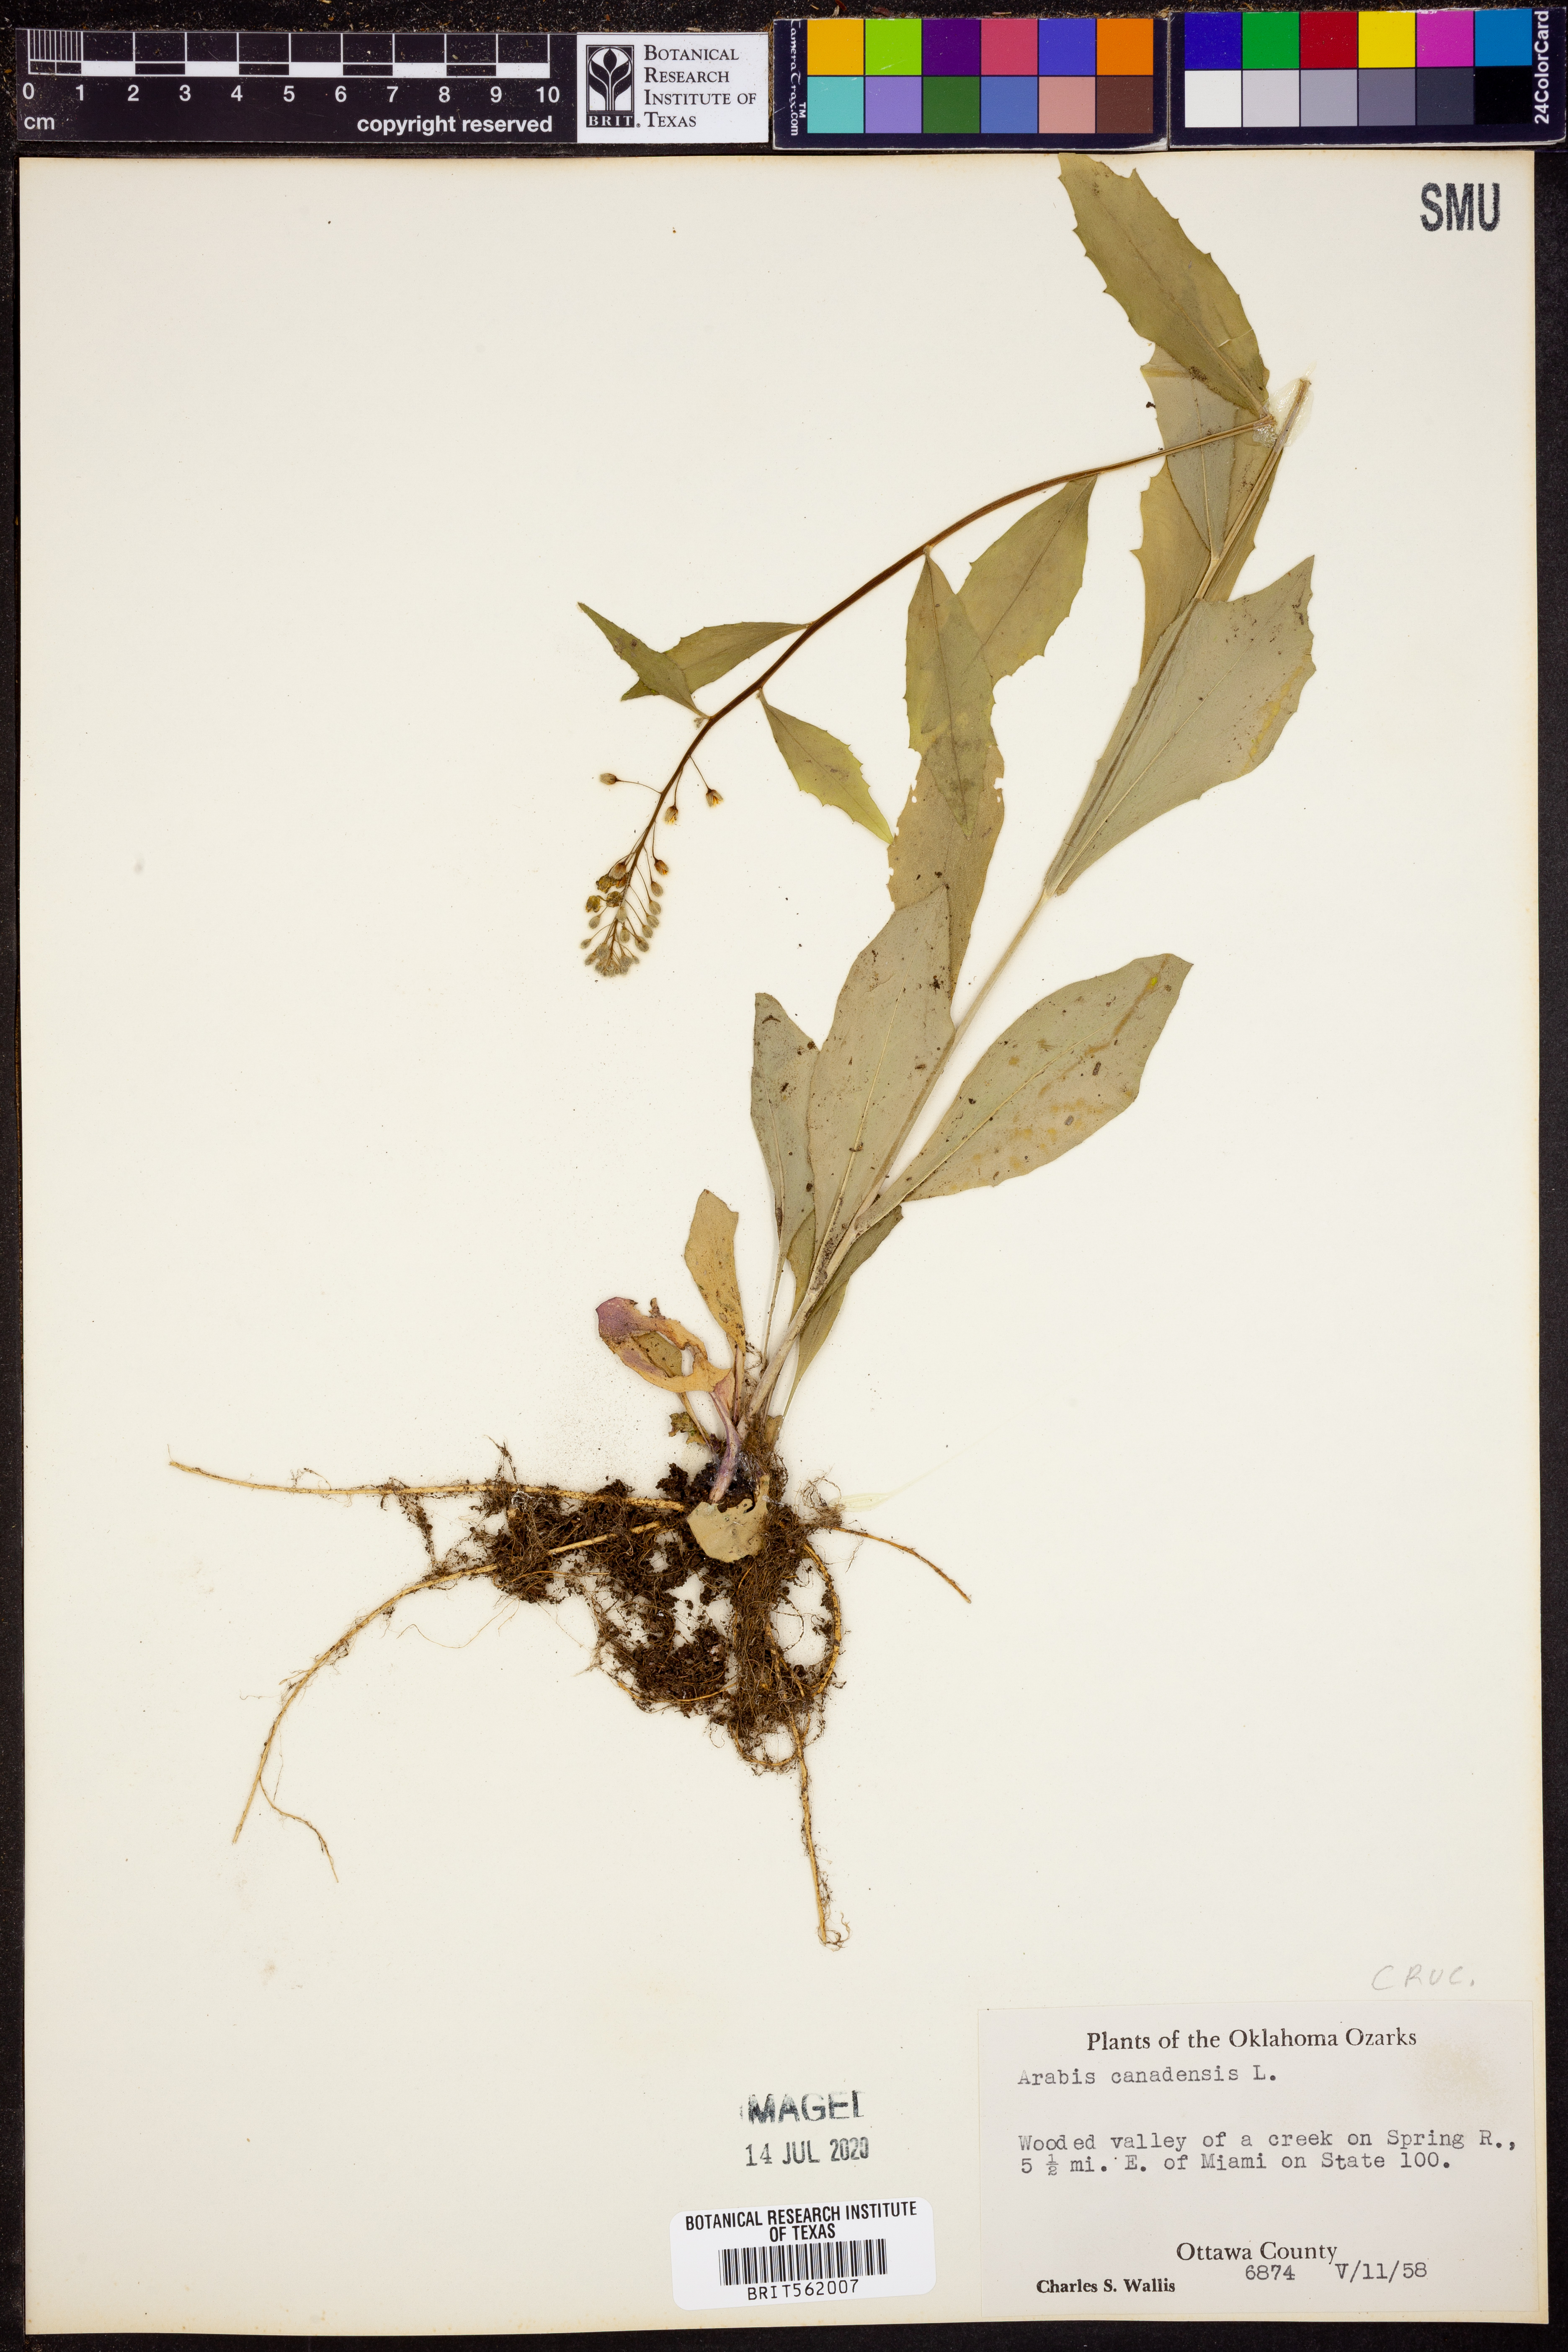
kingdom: Plantae
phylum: Tracheophyta
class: Magnoliopsida
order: Brassicales
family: Brassicaceae
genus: Borodinia
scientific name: Borodinia canadensis
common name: Sicklepod
